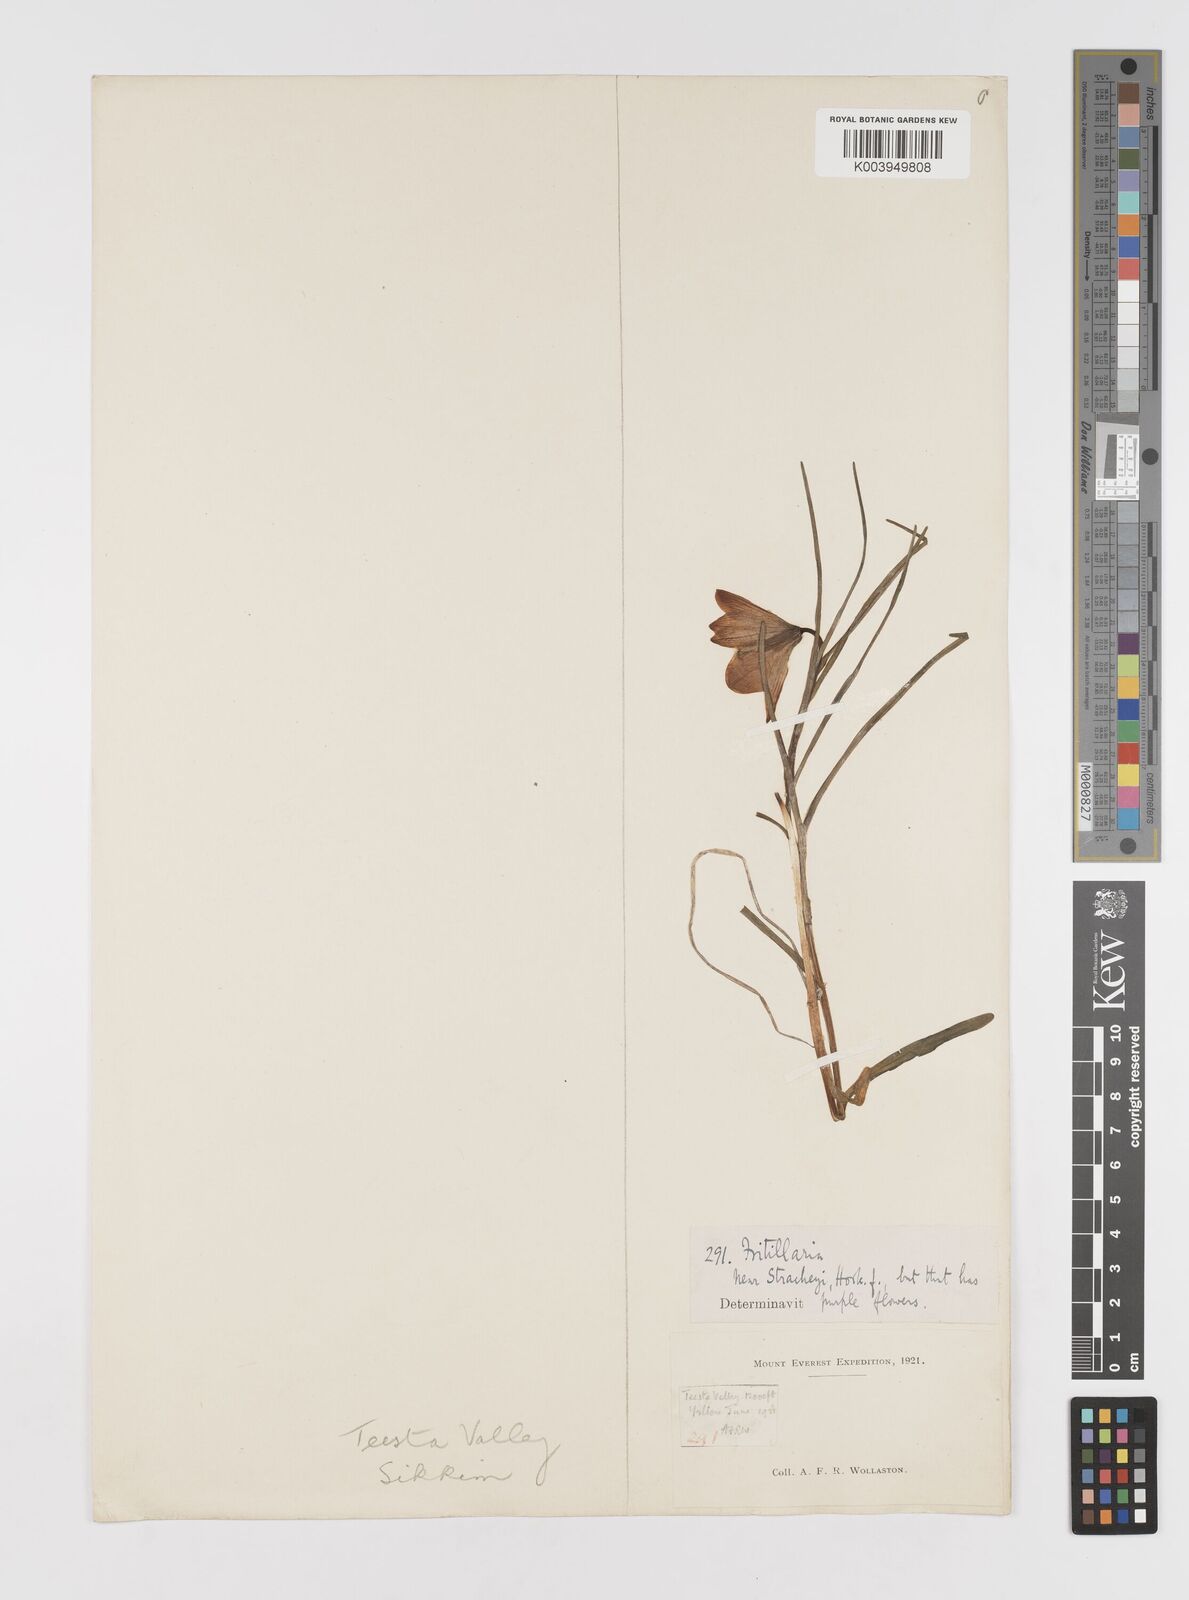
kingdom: Plantae
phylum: Tracheophyta
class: Liliopsida
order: Liliales
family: Liliaceae
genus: Lilium
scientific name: Lilium nanum
